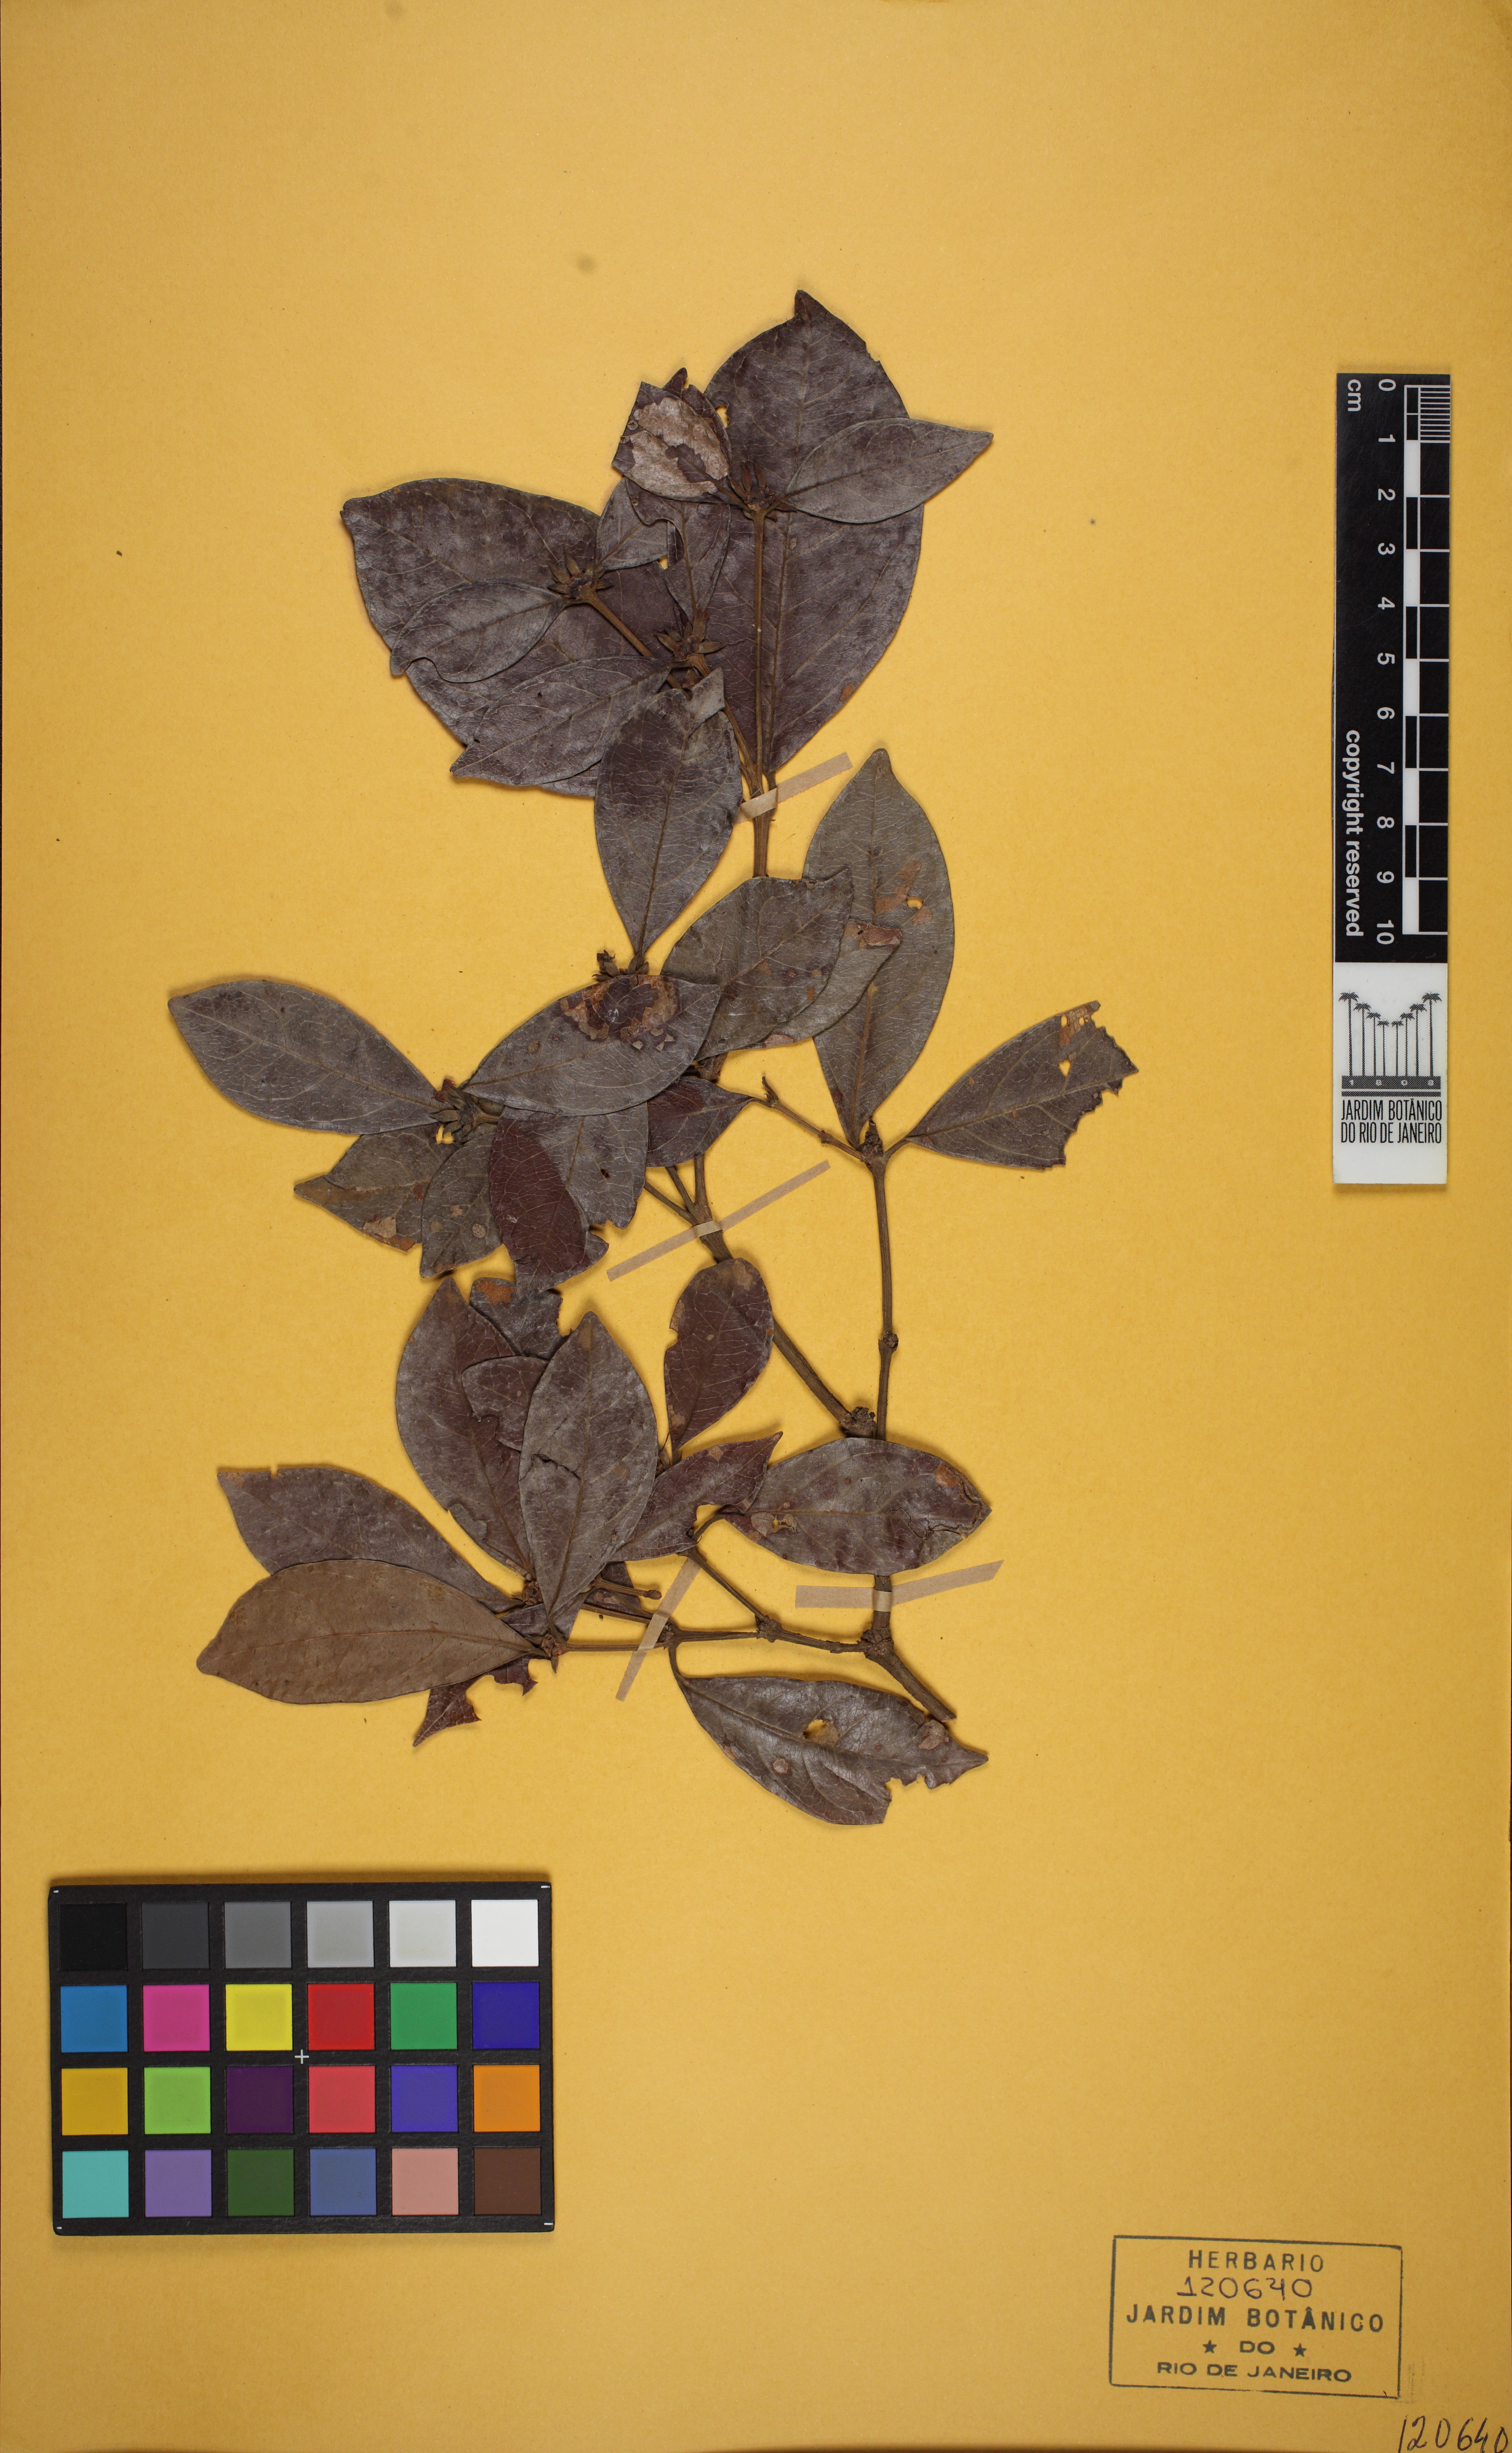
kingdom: Plantae
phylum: Tracheophyta
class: Magnoliopsida
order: Gentianales
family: Rubiaceae
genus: Cordiera
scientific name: Cordiera concolor
